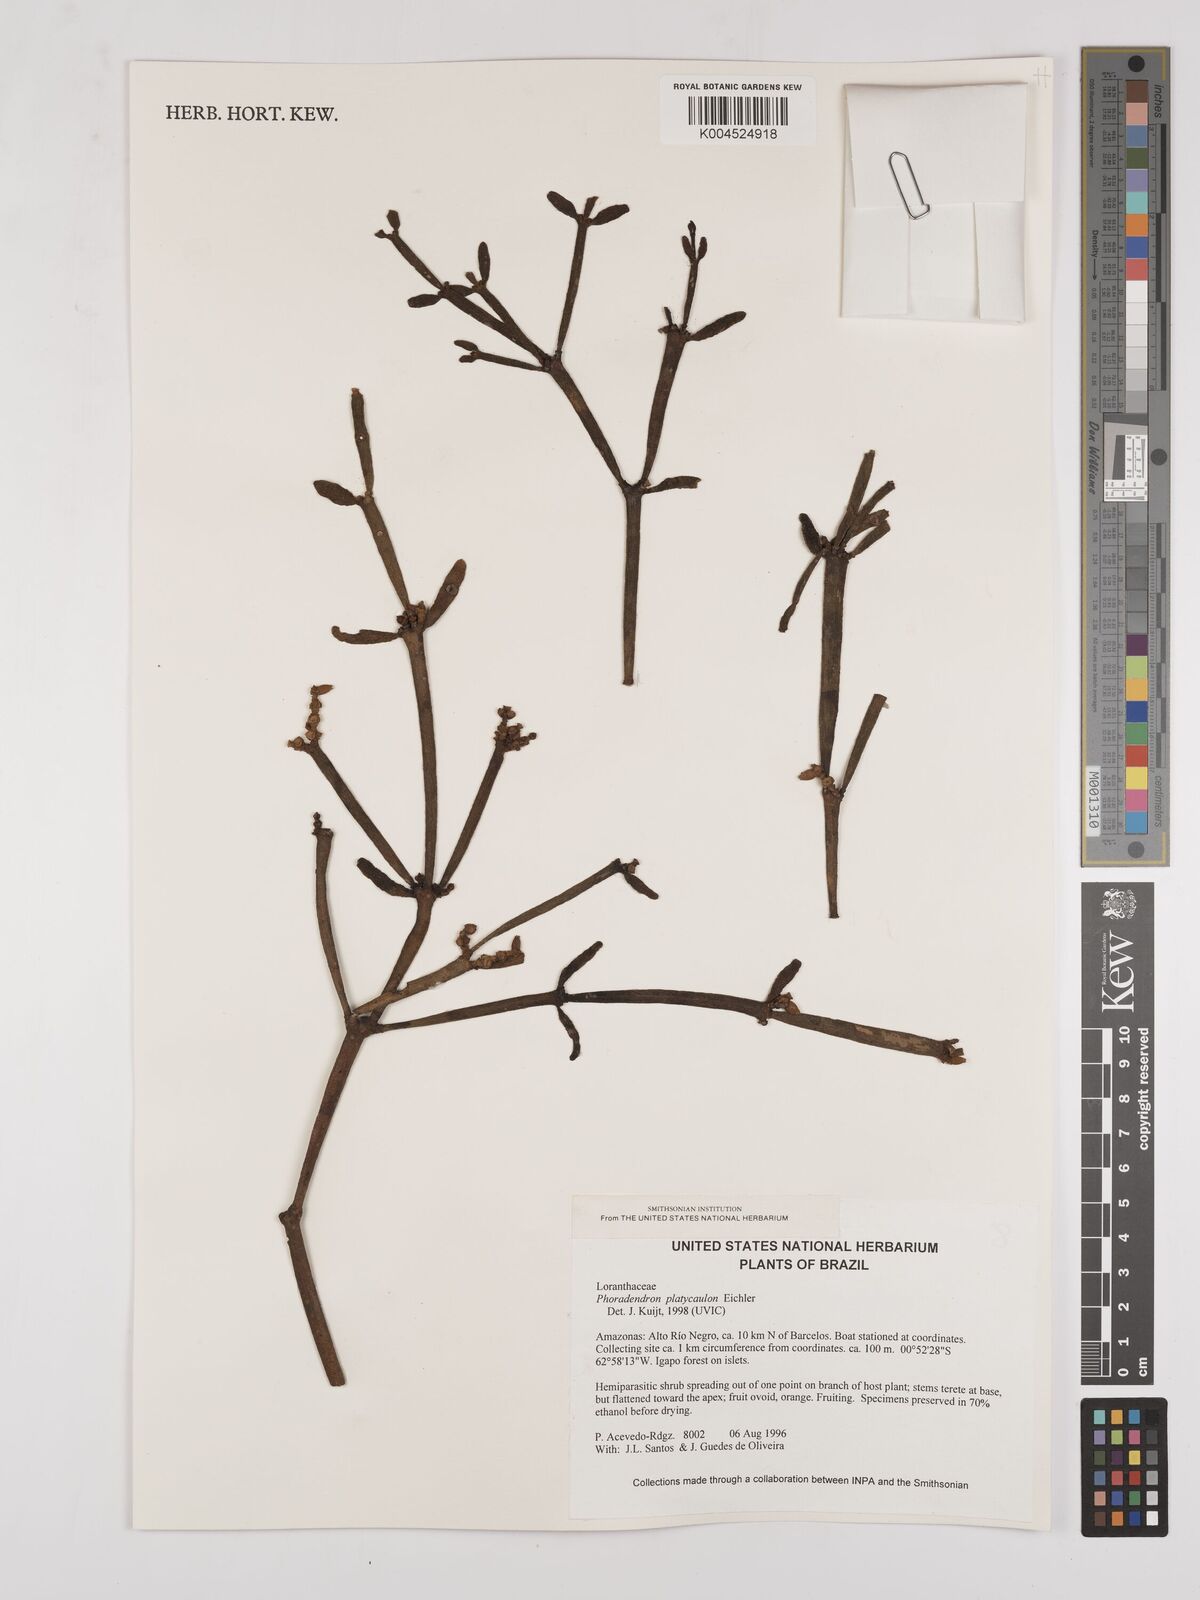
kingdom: Plantae
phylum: Tracheophyta
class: Magnoliopsida
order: Santalales
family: Viscaceae
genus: Phoradendron
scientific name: Phoradendron planiphyllum
